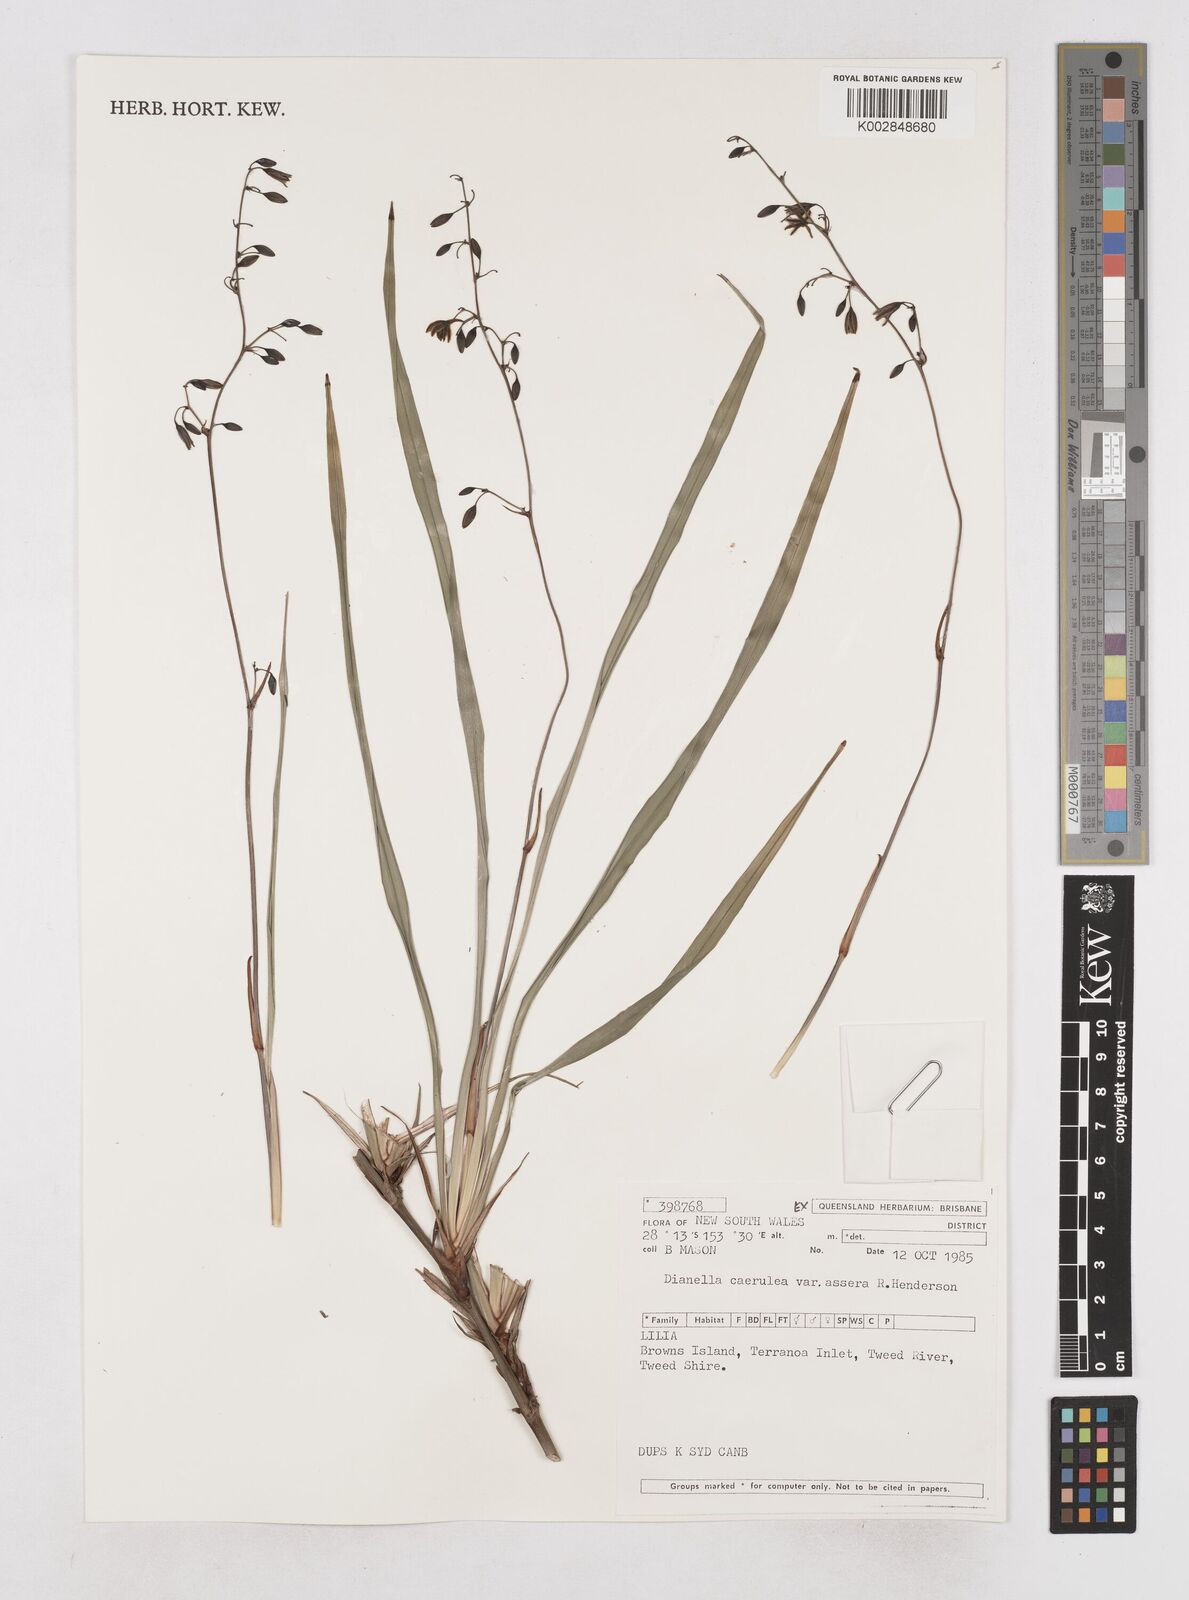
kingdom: Plantae
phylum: Tracheophyta
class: Liliopsida
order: Asparagales
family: Asphodelaceae
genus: Dianella
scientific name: Dianella caerulea
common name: Blue flax-lily
